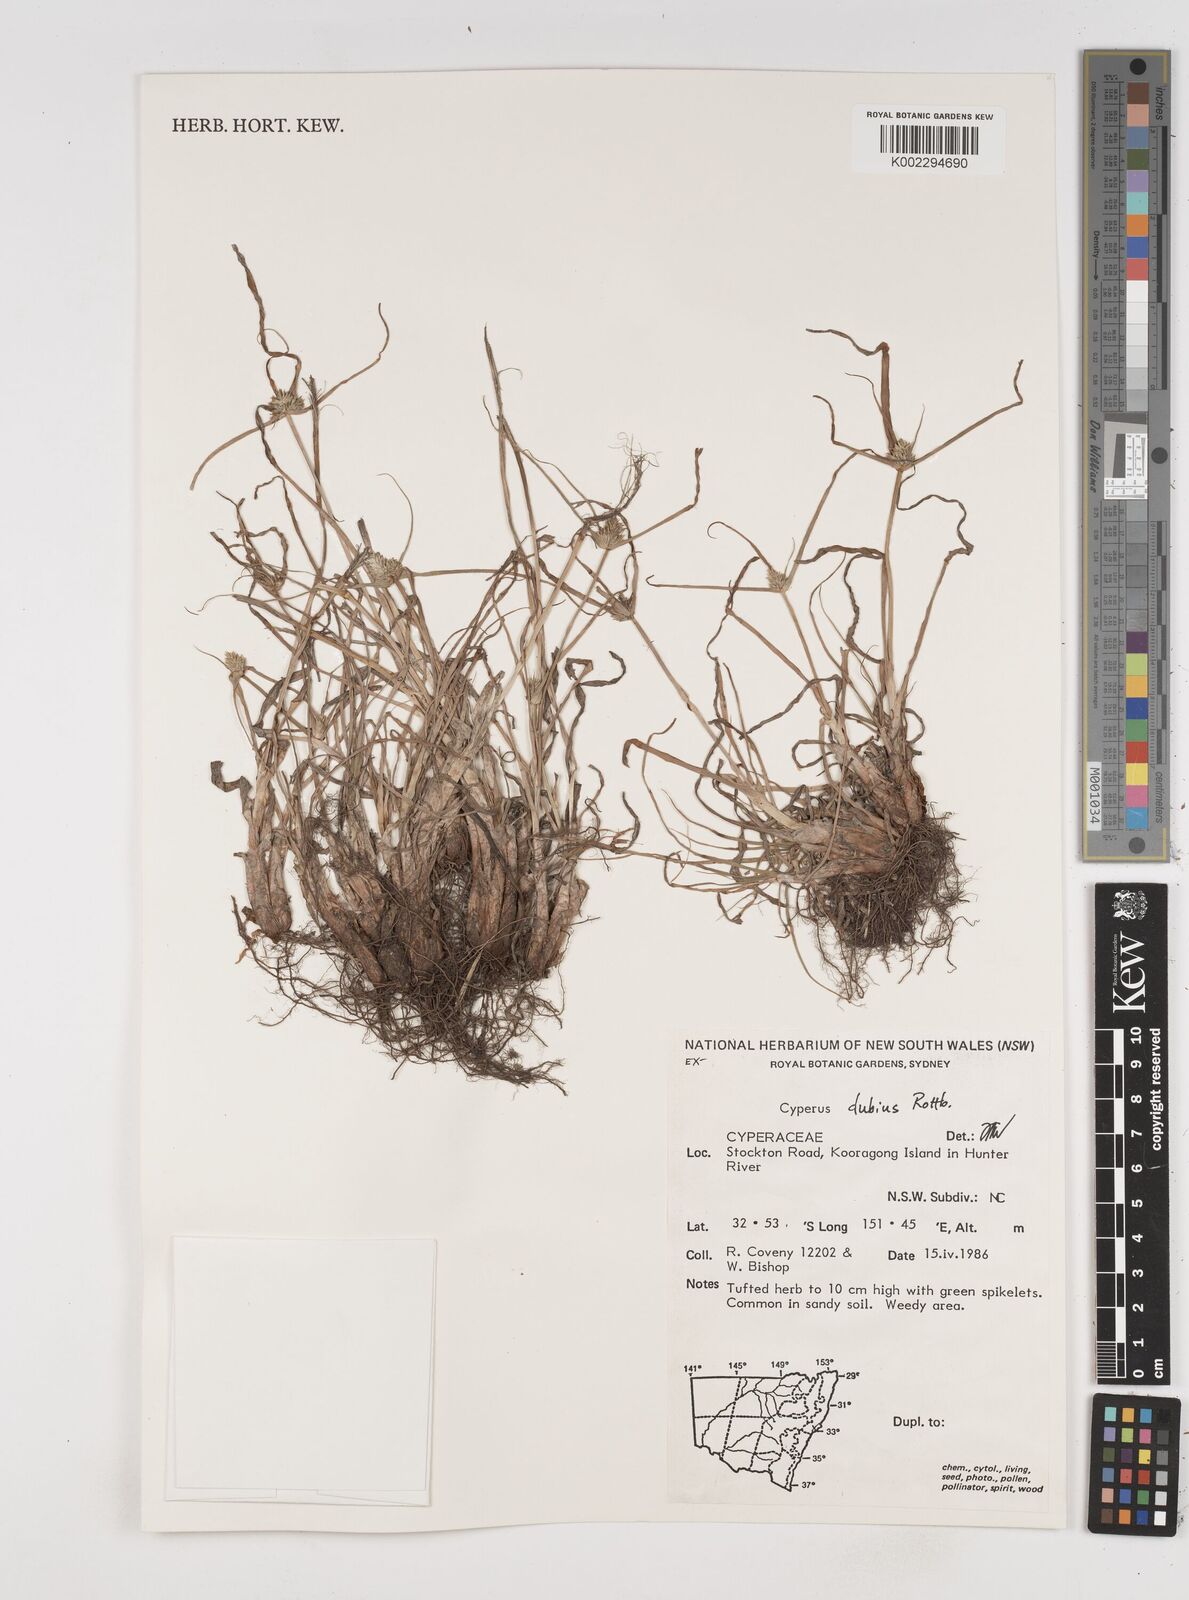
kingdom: Plantae
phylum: Tracheophyta
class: Liliopsida
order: Poales
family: Cyperaceae
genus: Cyperus
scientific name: Cyperus dubius
